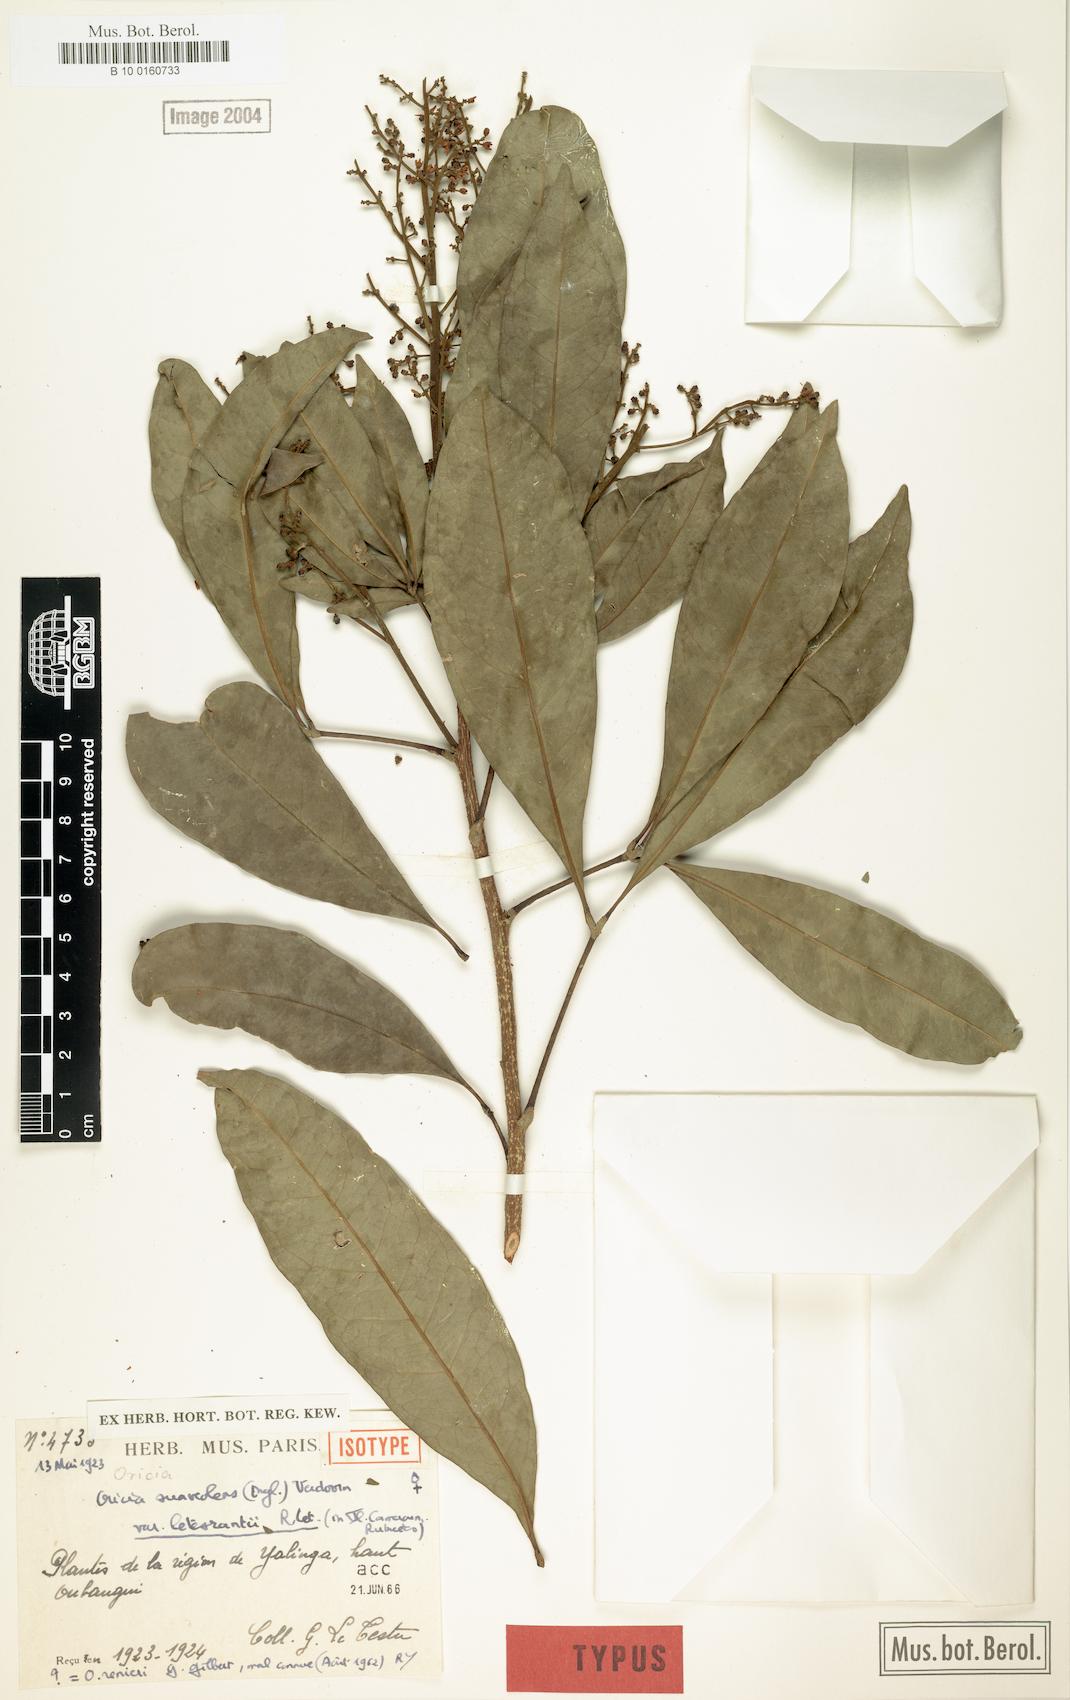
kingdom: Plantae
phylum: Tracheophyta
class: Magnoliopsida
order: Sapindales
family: Rutaceae
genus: Vepris
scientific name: Vepris suaveolens
